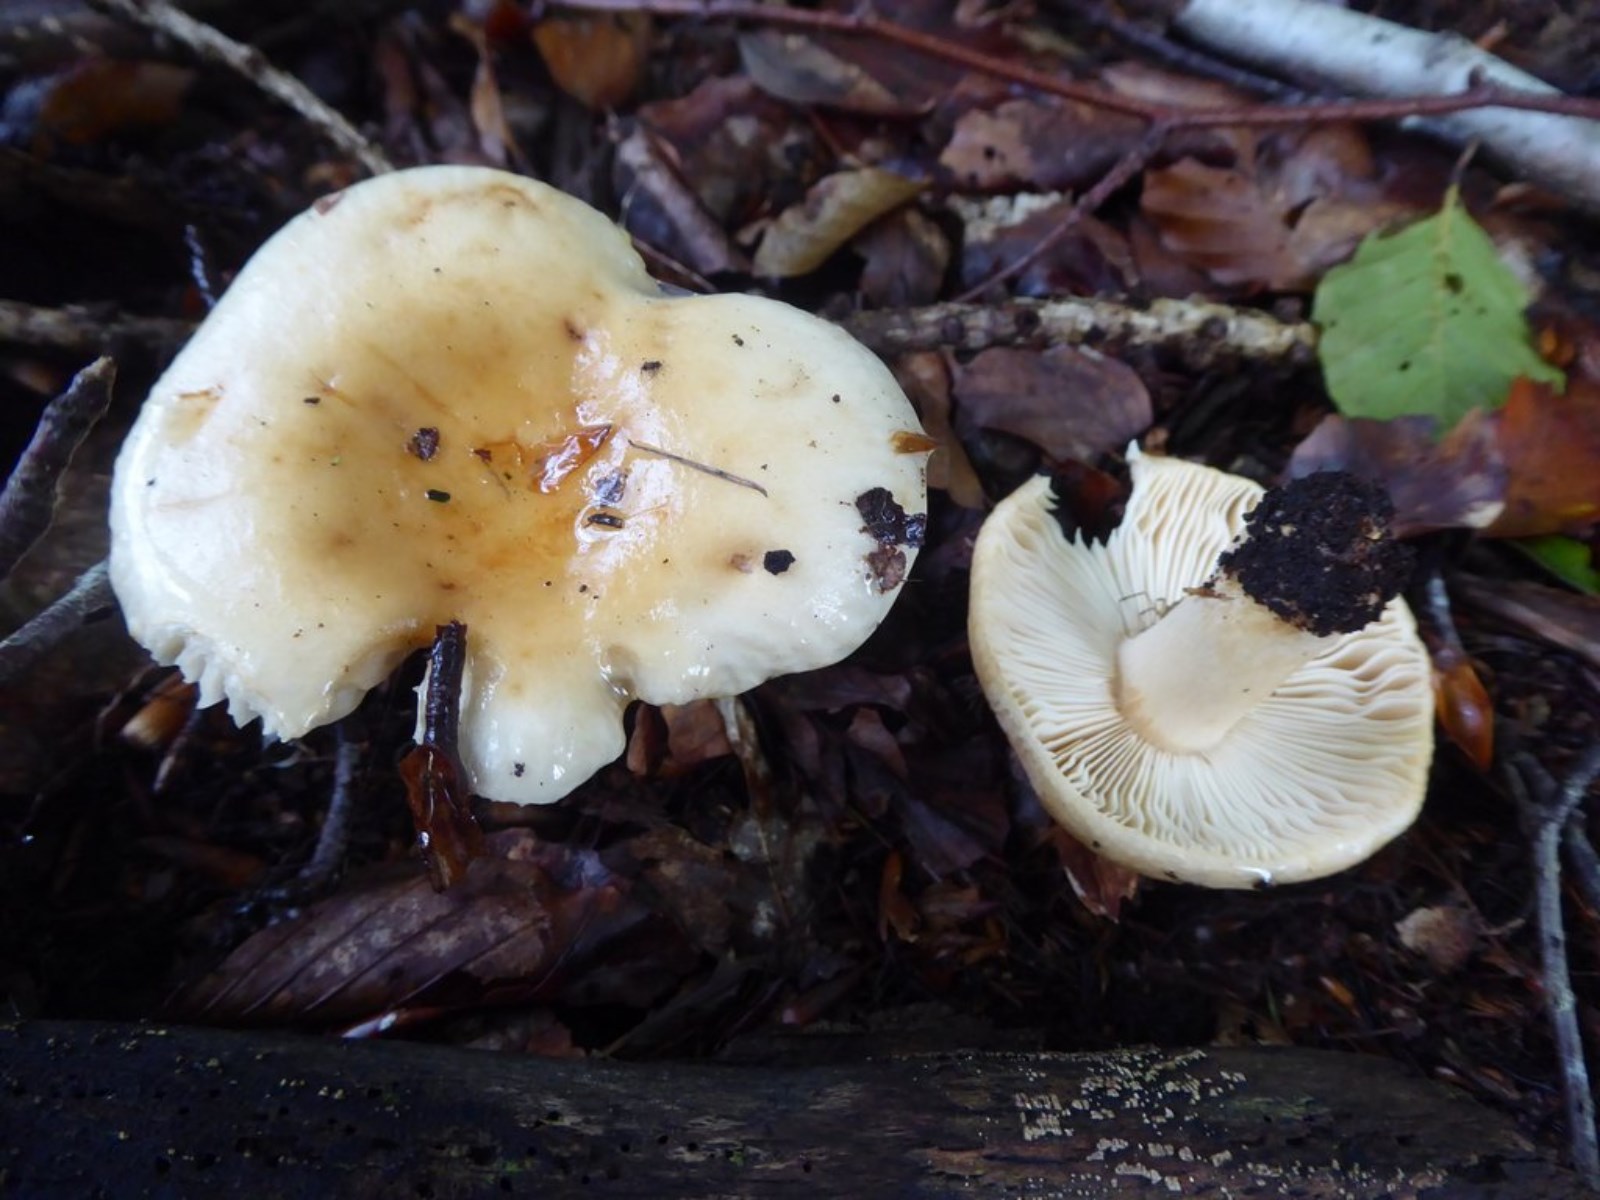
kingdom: Fungi
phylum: Basidiomycota
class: Agaricomycetes
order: Russulales
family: Russulaceae
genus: Russula
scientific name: Russula fellea
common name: galde-skørhat
